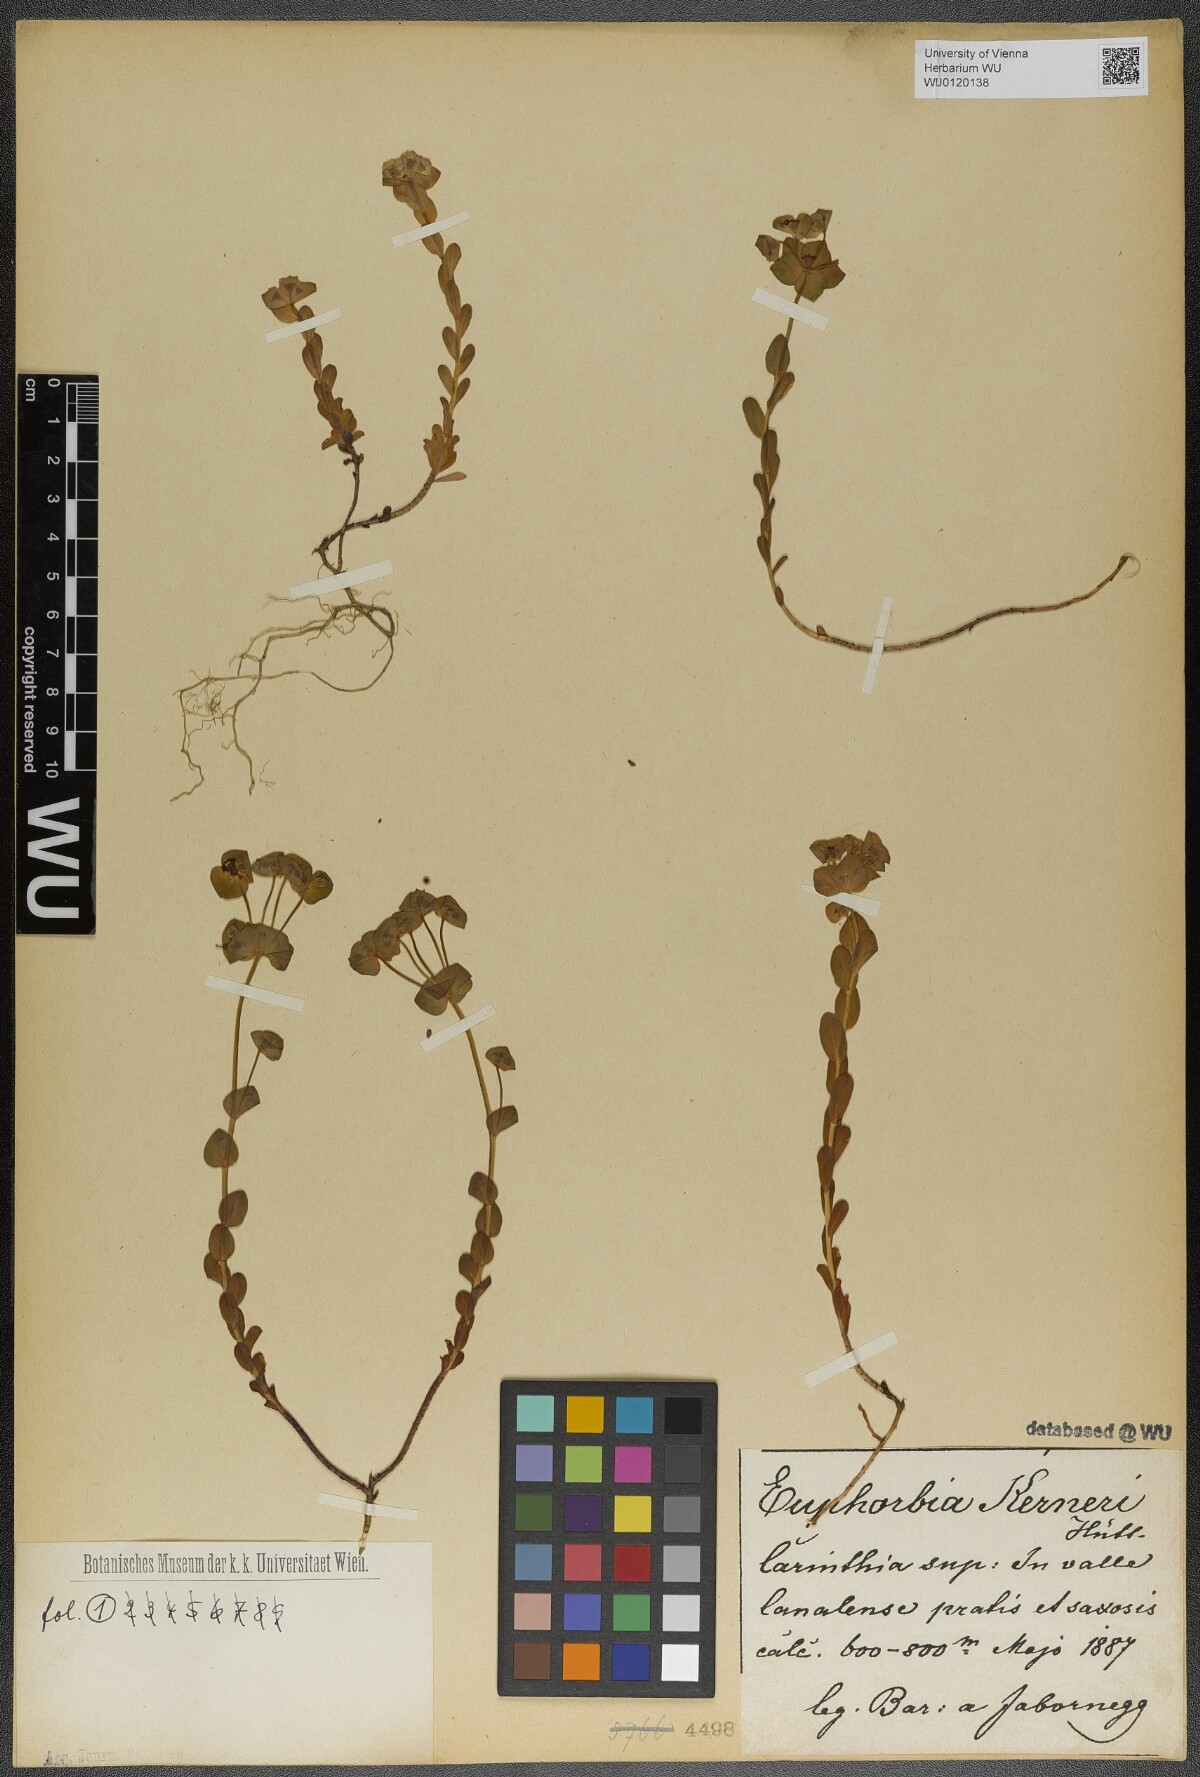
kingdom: Plantae
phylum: Tracheophyta
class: Magnoliopsida
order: Malpighiales
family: Euphorbiaceae
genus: Euphorbia
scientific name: Euphorbia kerneri
